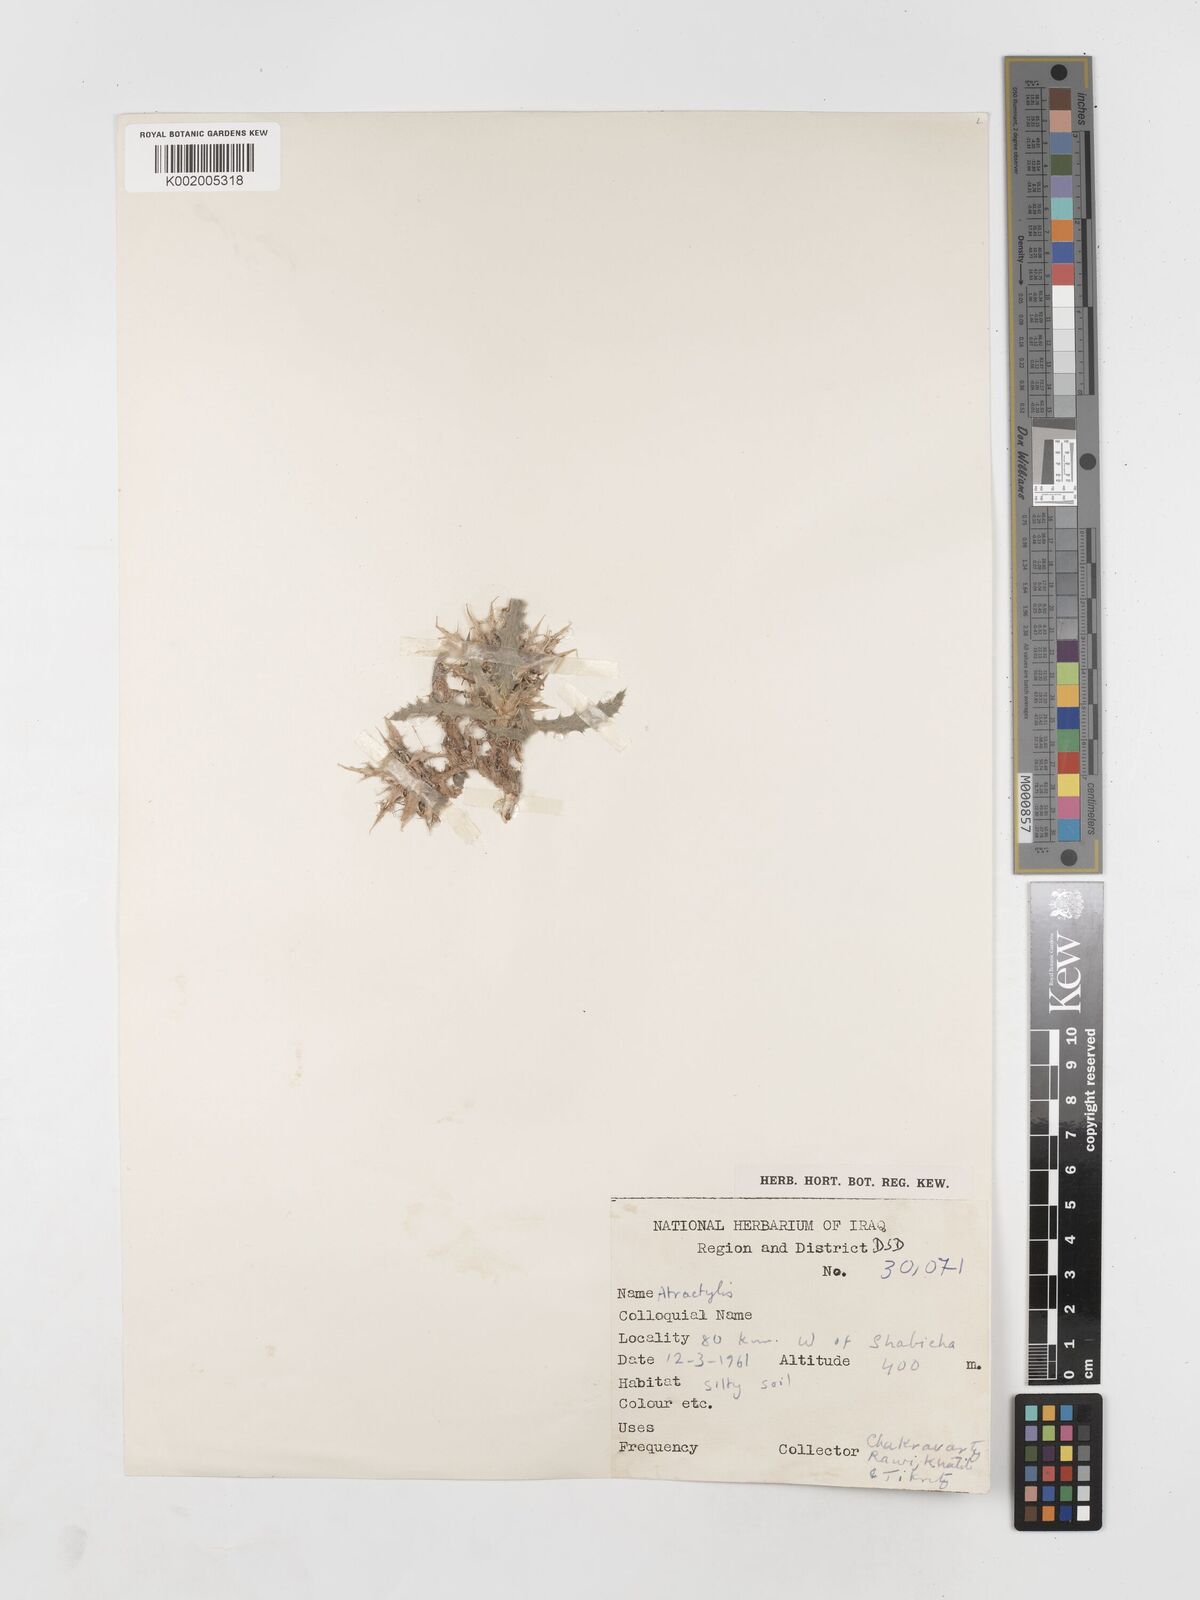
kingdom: Plantae
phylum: Tracheophyta
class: Magnoliopsida
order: Asterales
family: Asteraceae
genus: Atractylis
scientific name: Atractylis carduus
